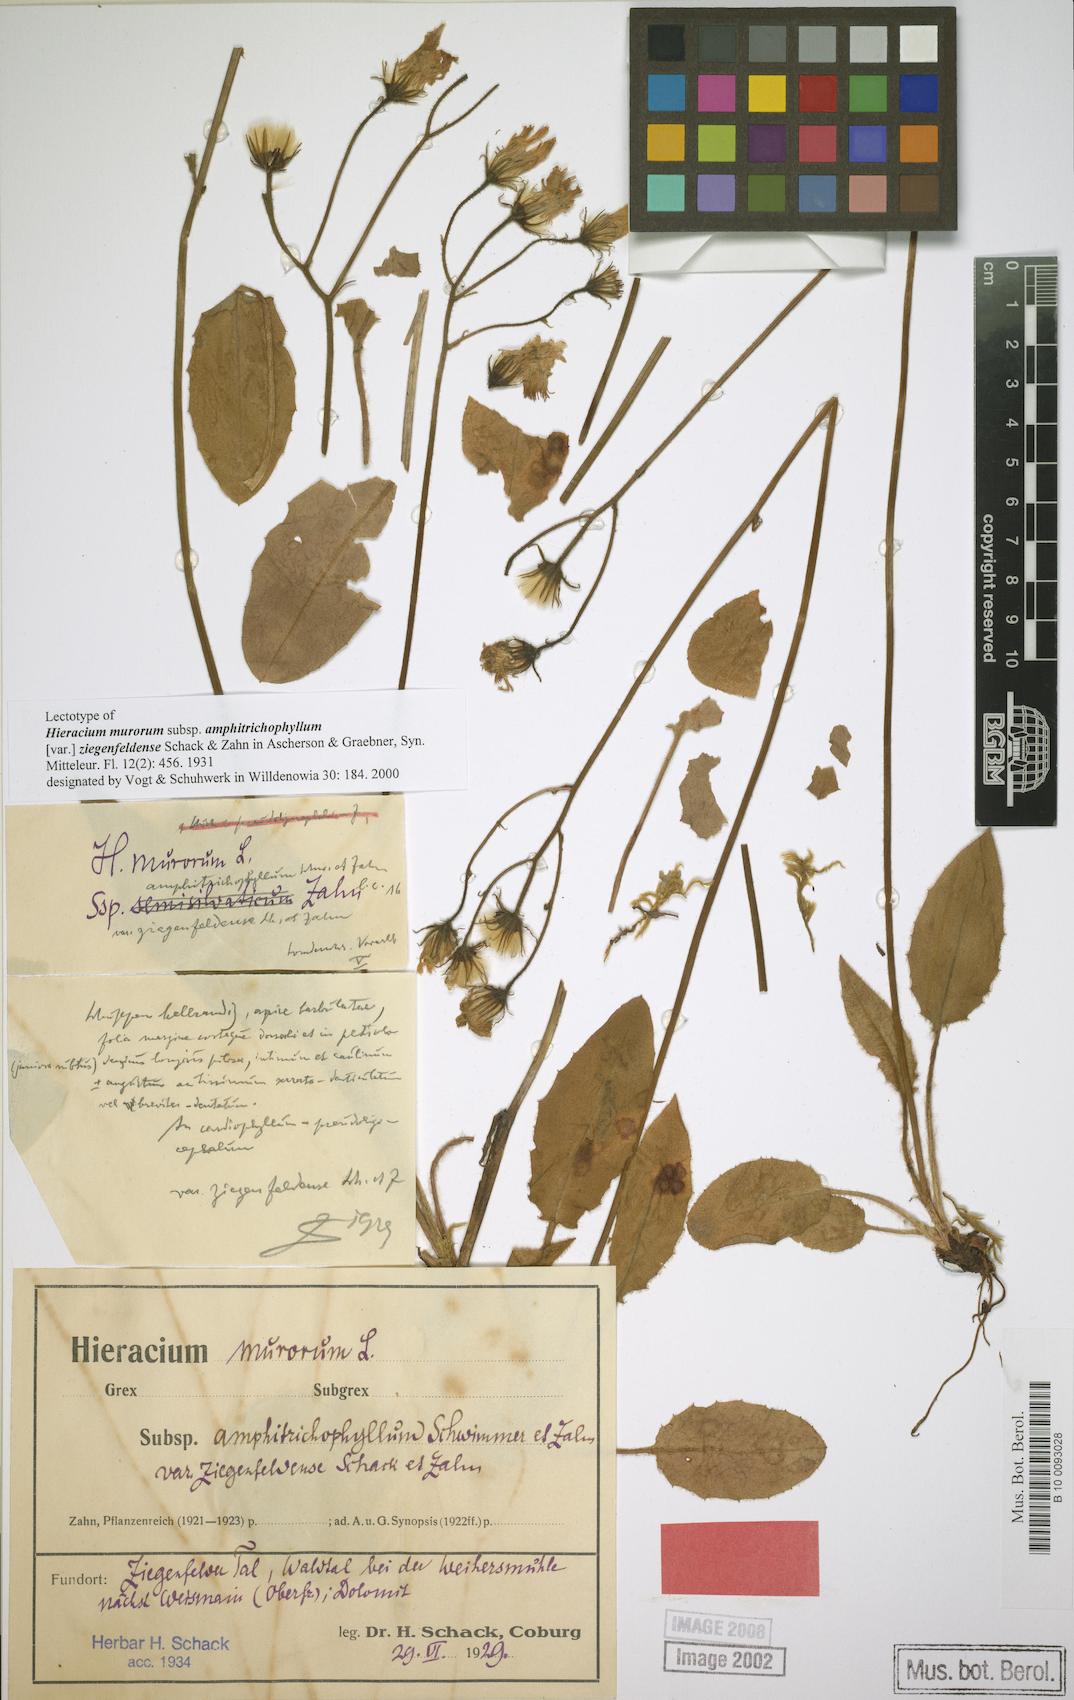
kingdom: Plantae
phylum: Tracheophyta
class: Magnoliopsida
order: Asterales
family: Asteraceae
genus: Hieracium
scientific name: Hieracium murorum
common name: Wall hawkweed
